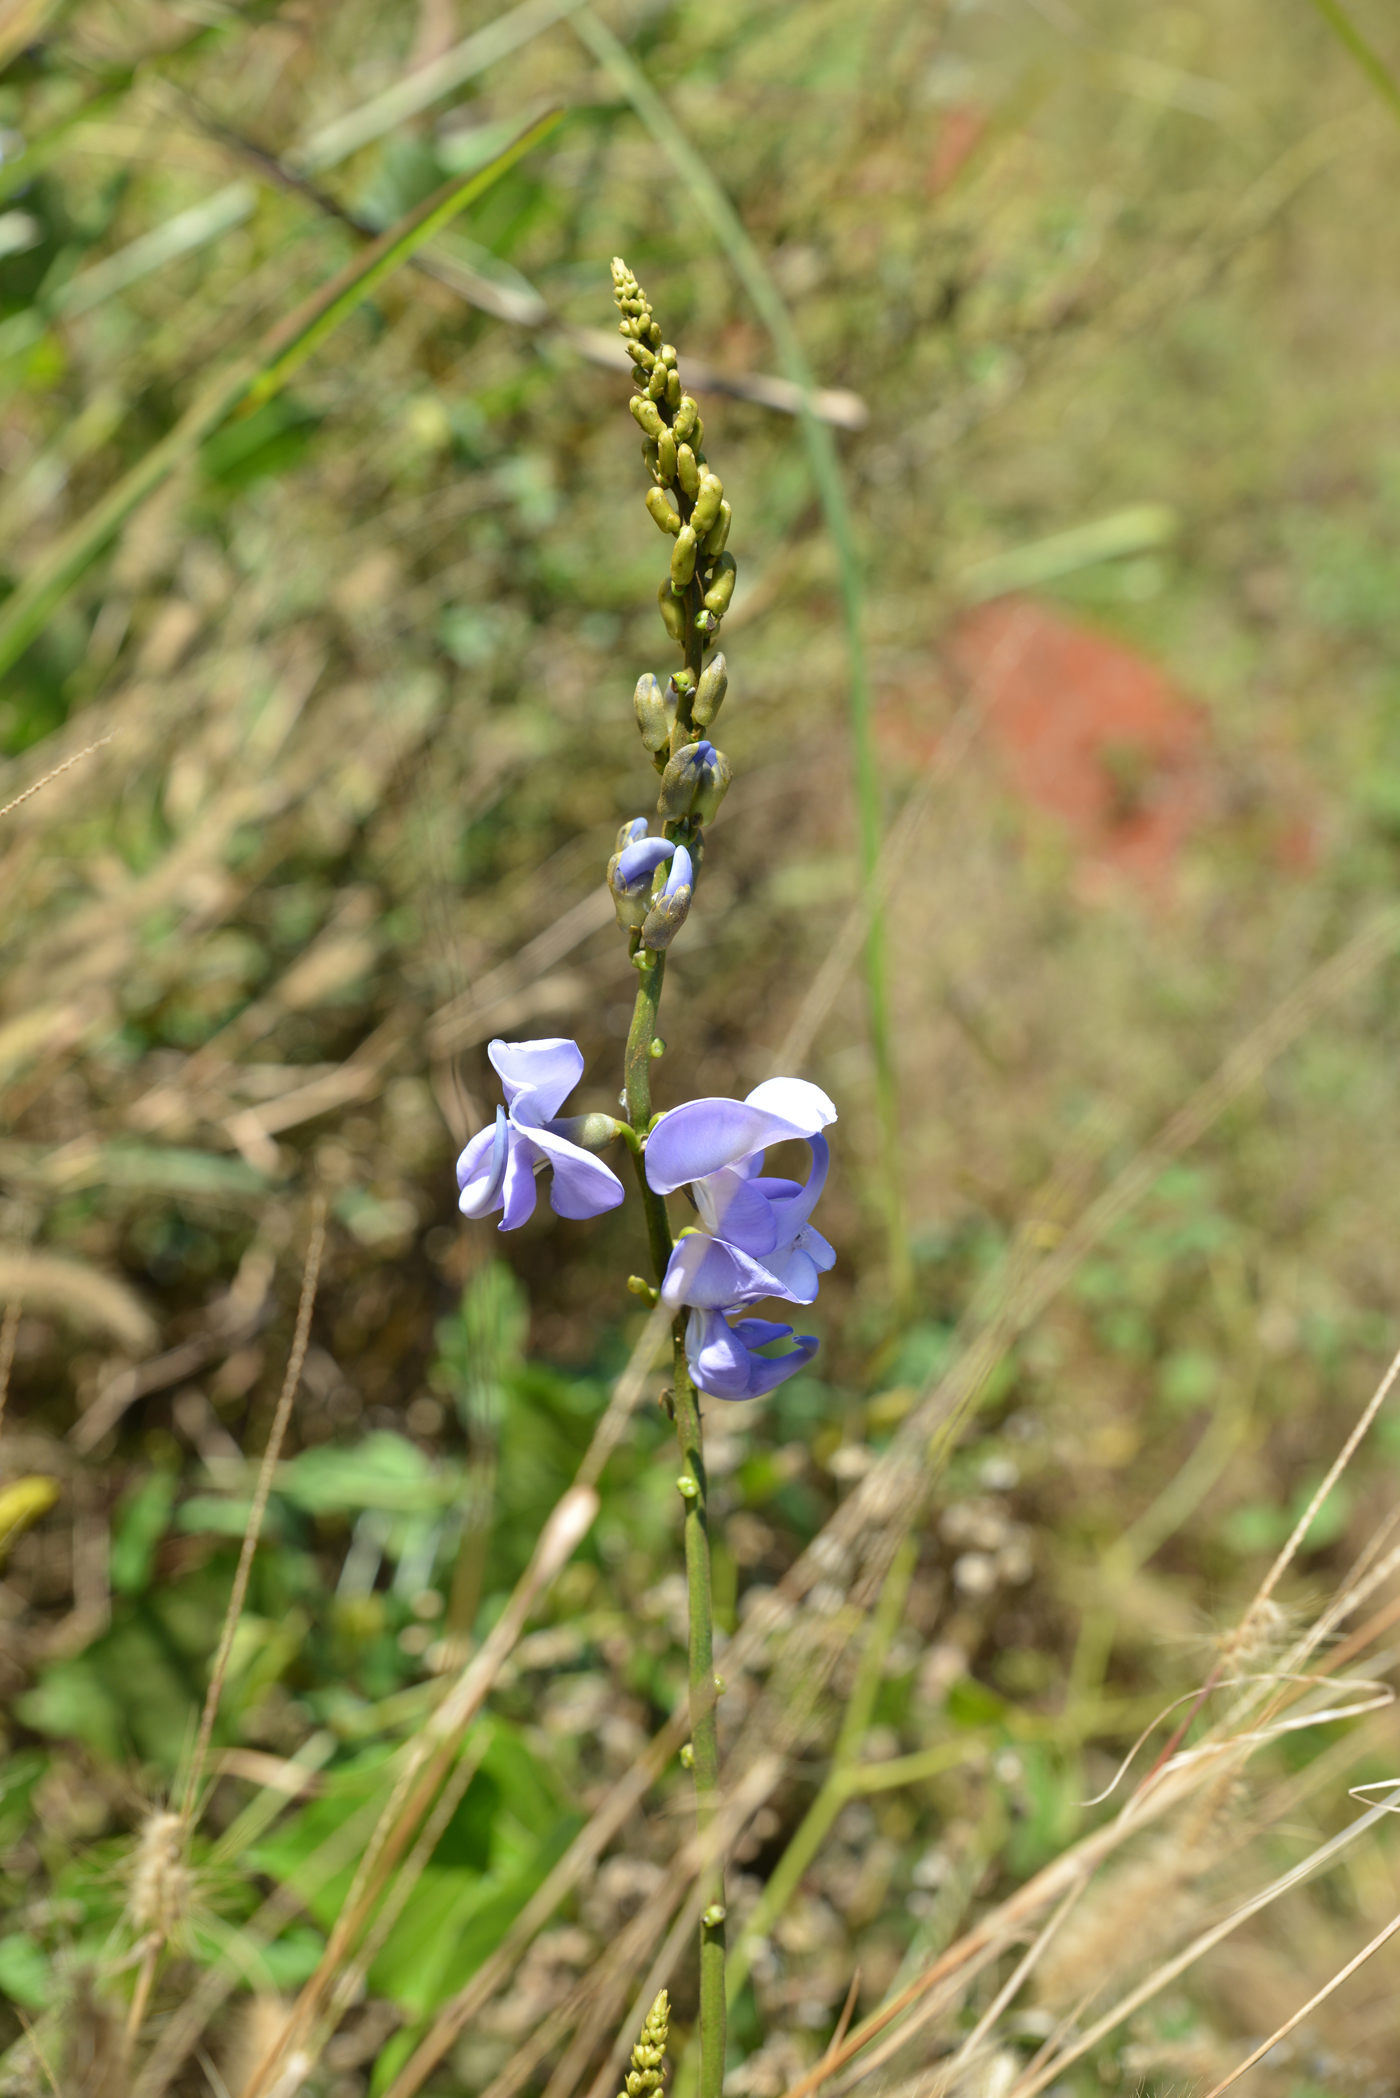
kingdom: Plantae
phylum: Tracheophyta
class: Magnoliopsida
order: Fabales
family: Fabaceae
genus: Dysolobium
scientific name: Dysolobium grande
